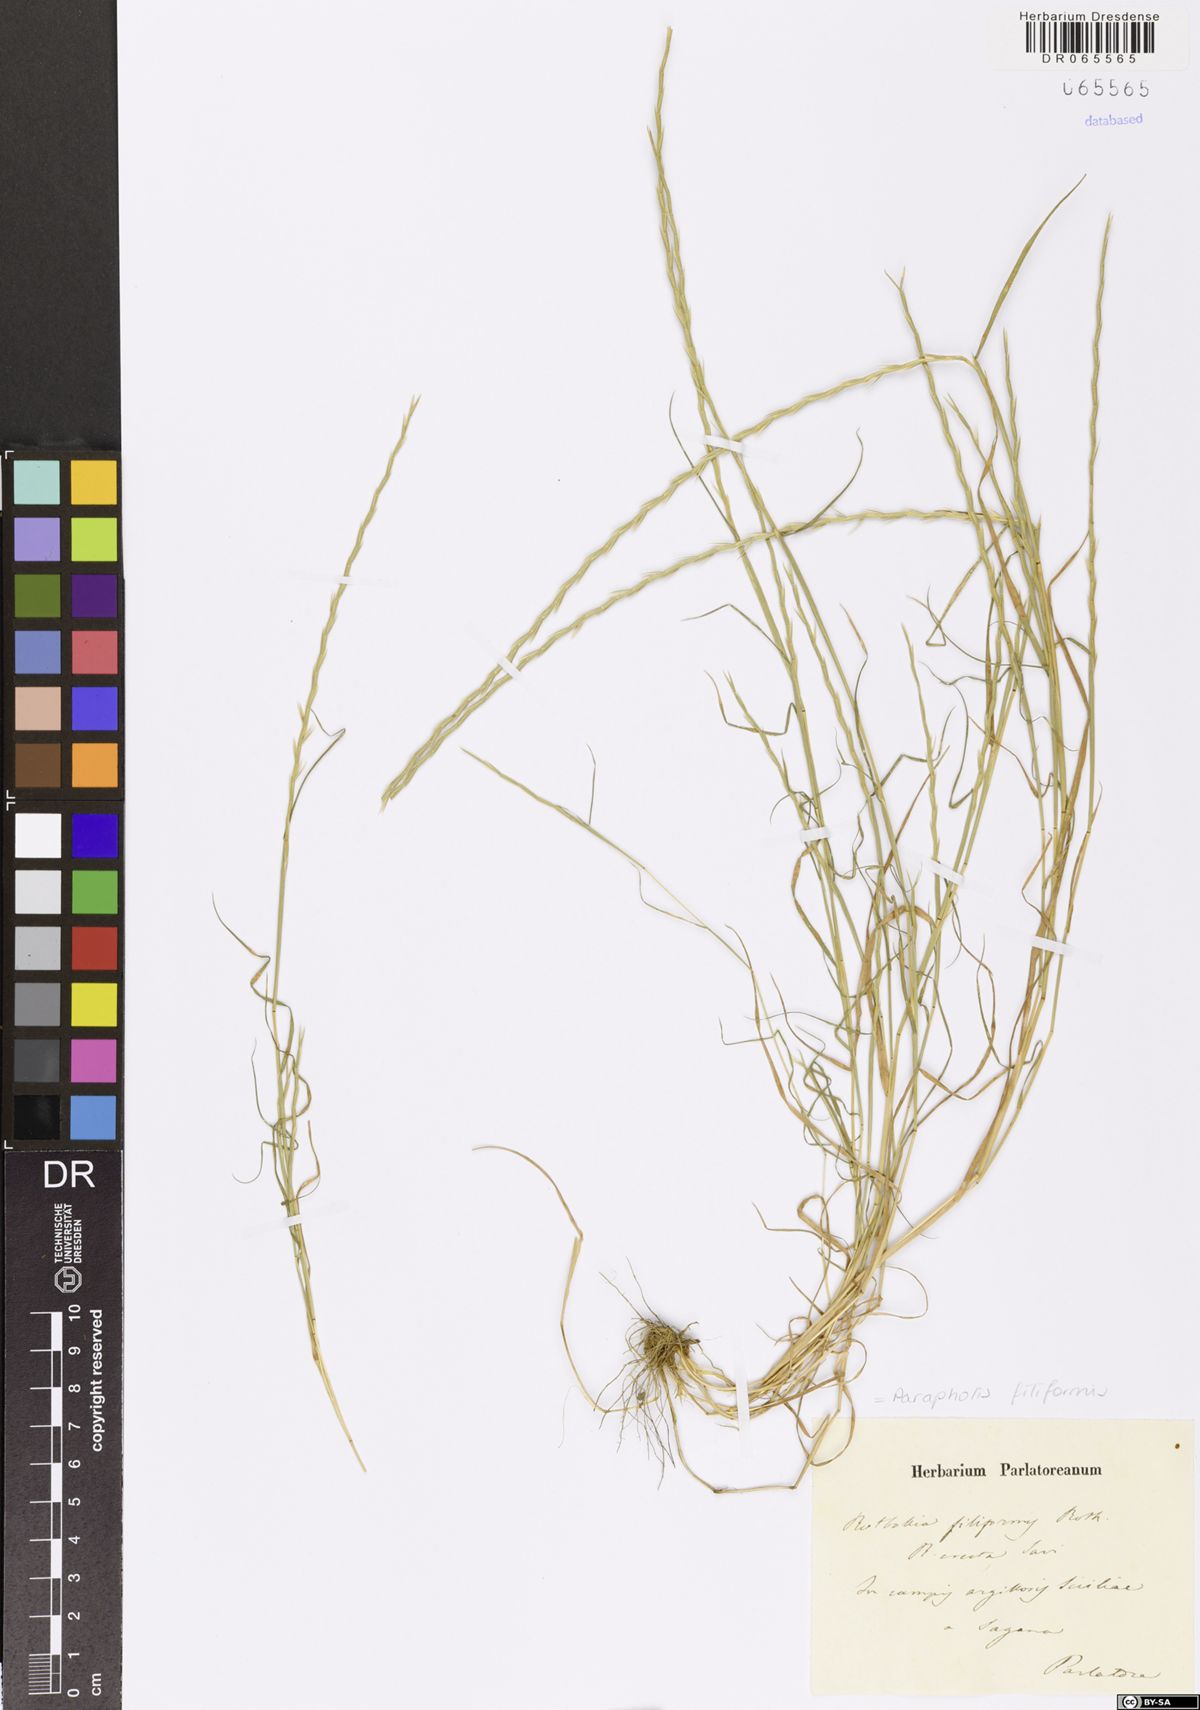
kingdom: Plantae
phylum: Tracheophyta
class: Liliopsida
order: Poales
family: Poaceae
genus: Parapholis
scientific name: Parapholis filiformis
